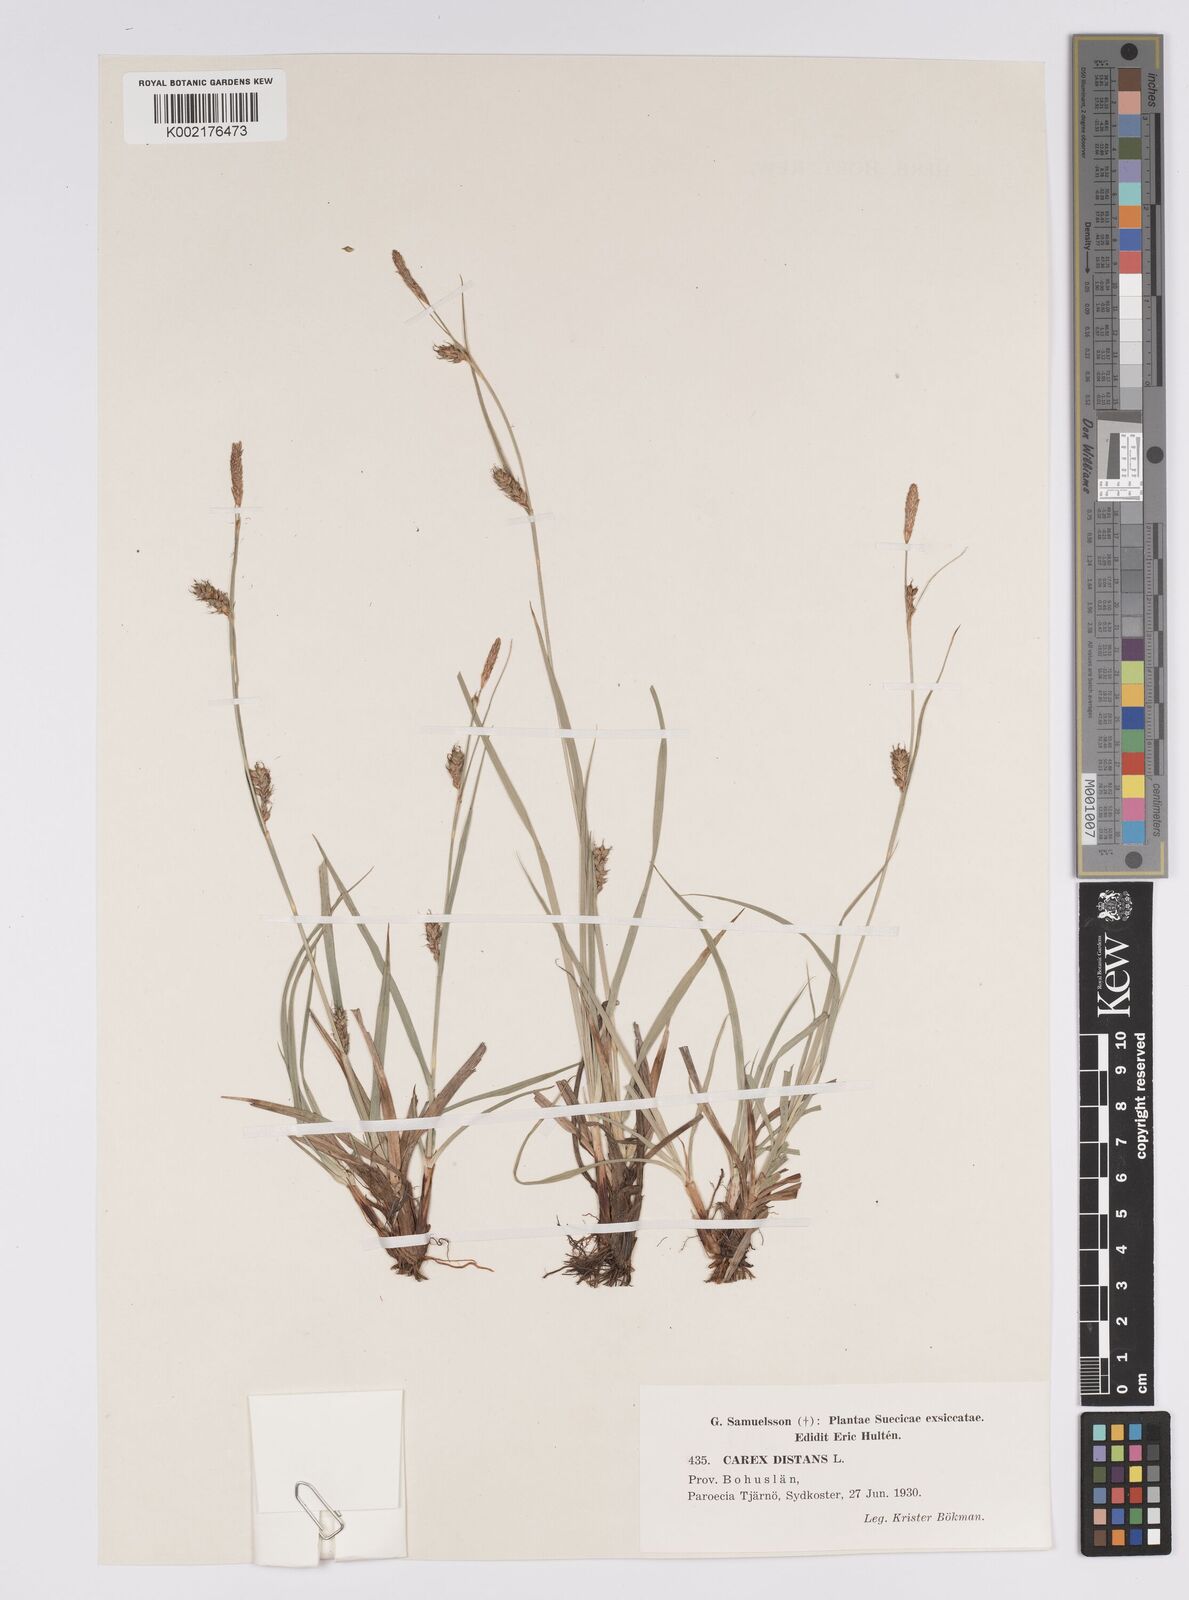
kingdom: Plantae
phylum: Tracheophyta
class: Liliopsida
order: Poales
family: Cyperaceae
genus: Carex
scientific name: Carex distans
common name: Distant sedge
